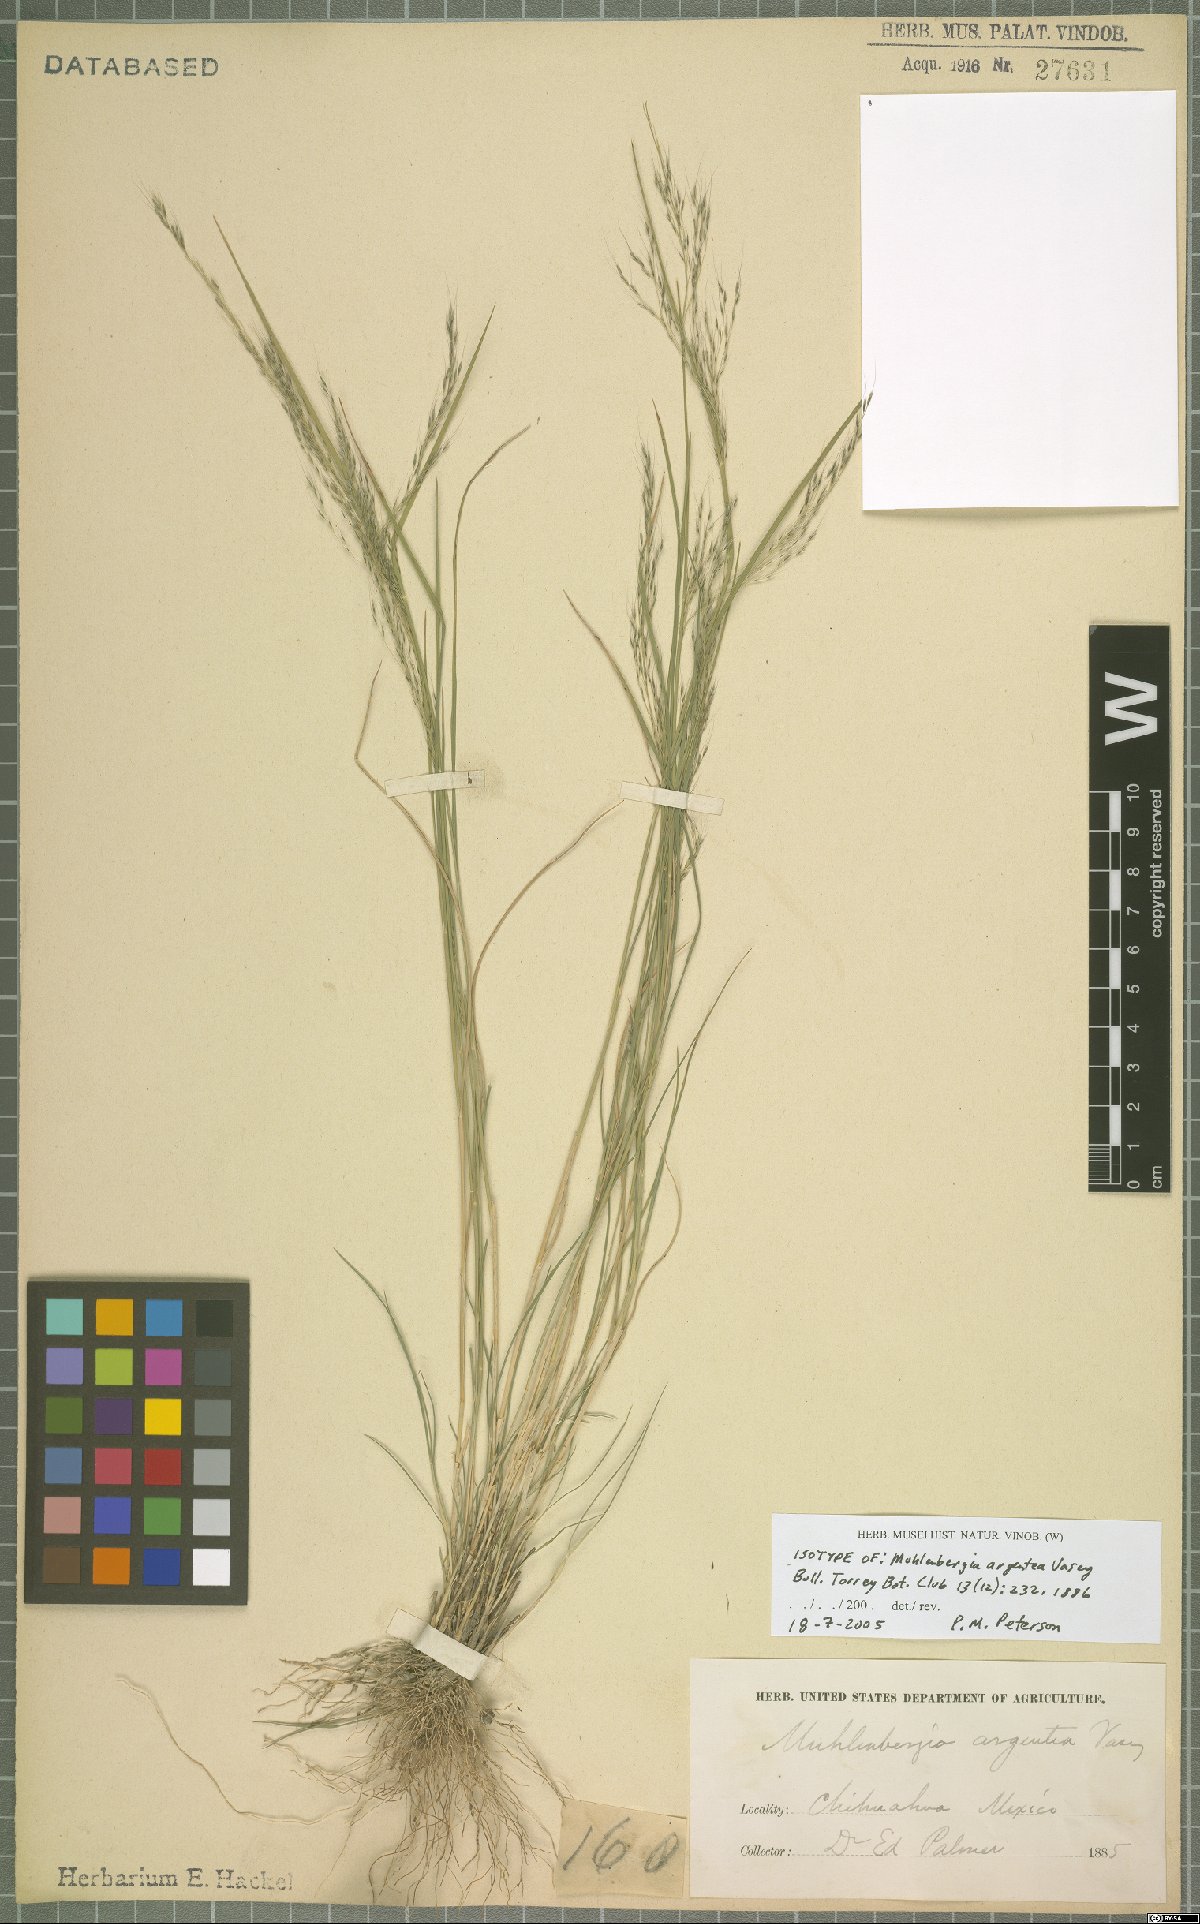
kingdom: Plantae
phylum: Tracheophyta
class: Liliopsida
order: Poales
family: Poaceae
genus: Muhlenbergia
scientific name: Muhlenbergia argentea
